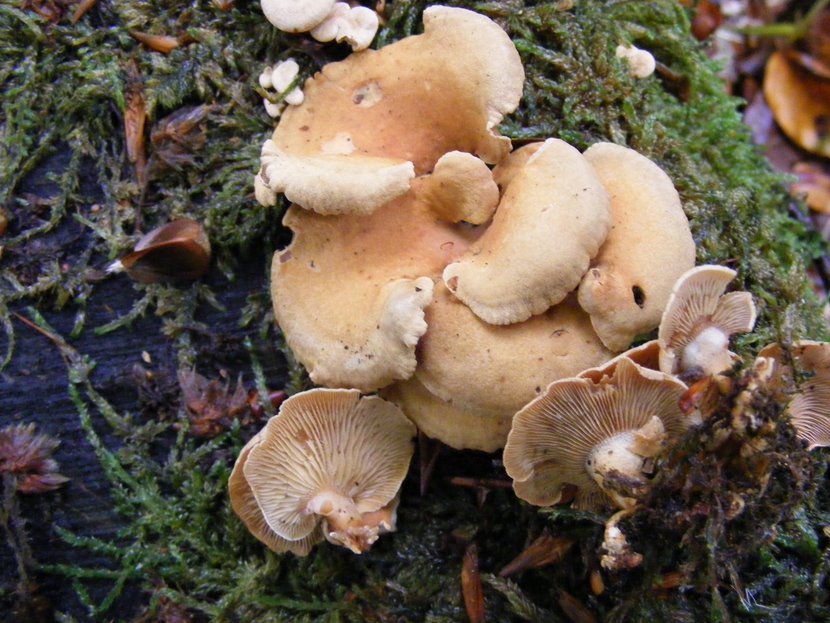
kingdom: Fungi
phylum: Basidiomycota
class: Agaricomycetes
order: Agaricales
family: Mycenaceae
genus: Panellus
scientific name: Panellus stipticus
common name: kliddet epaulethat
